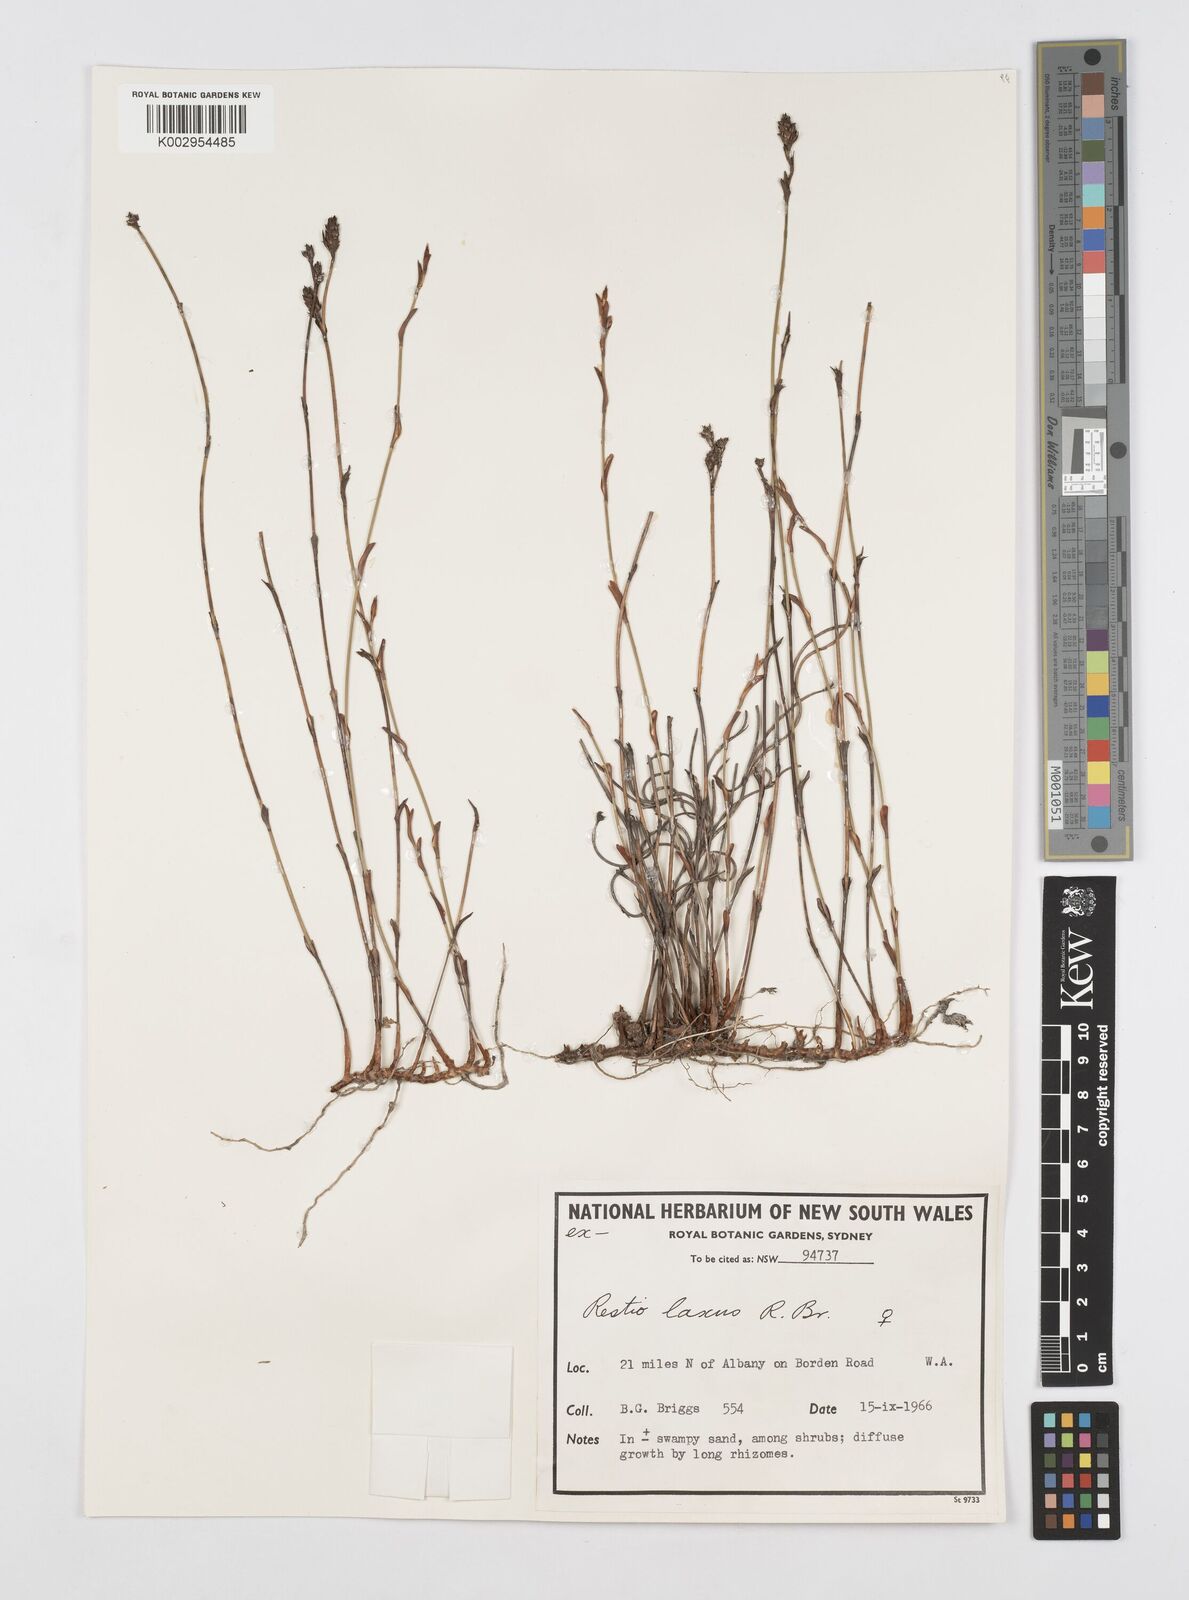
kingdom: Plantae
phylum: Tracheophyta
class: Liliopsida
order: Poales
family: Restionaceae
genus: Chordifex
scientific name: Chordifex laxus
